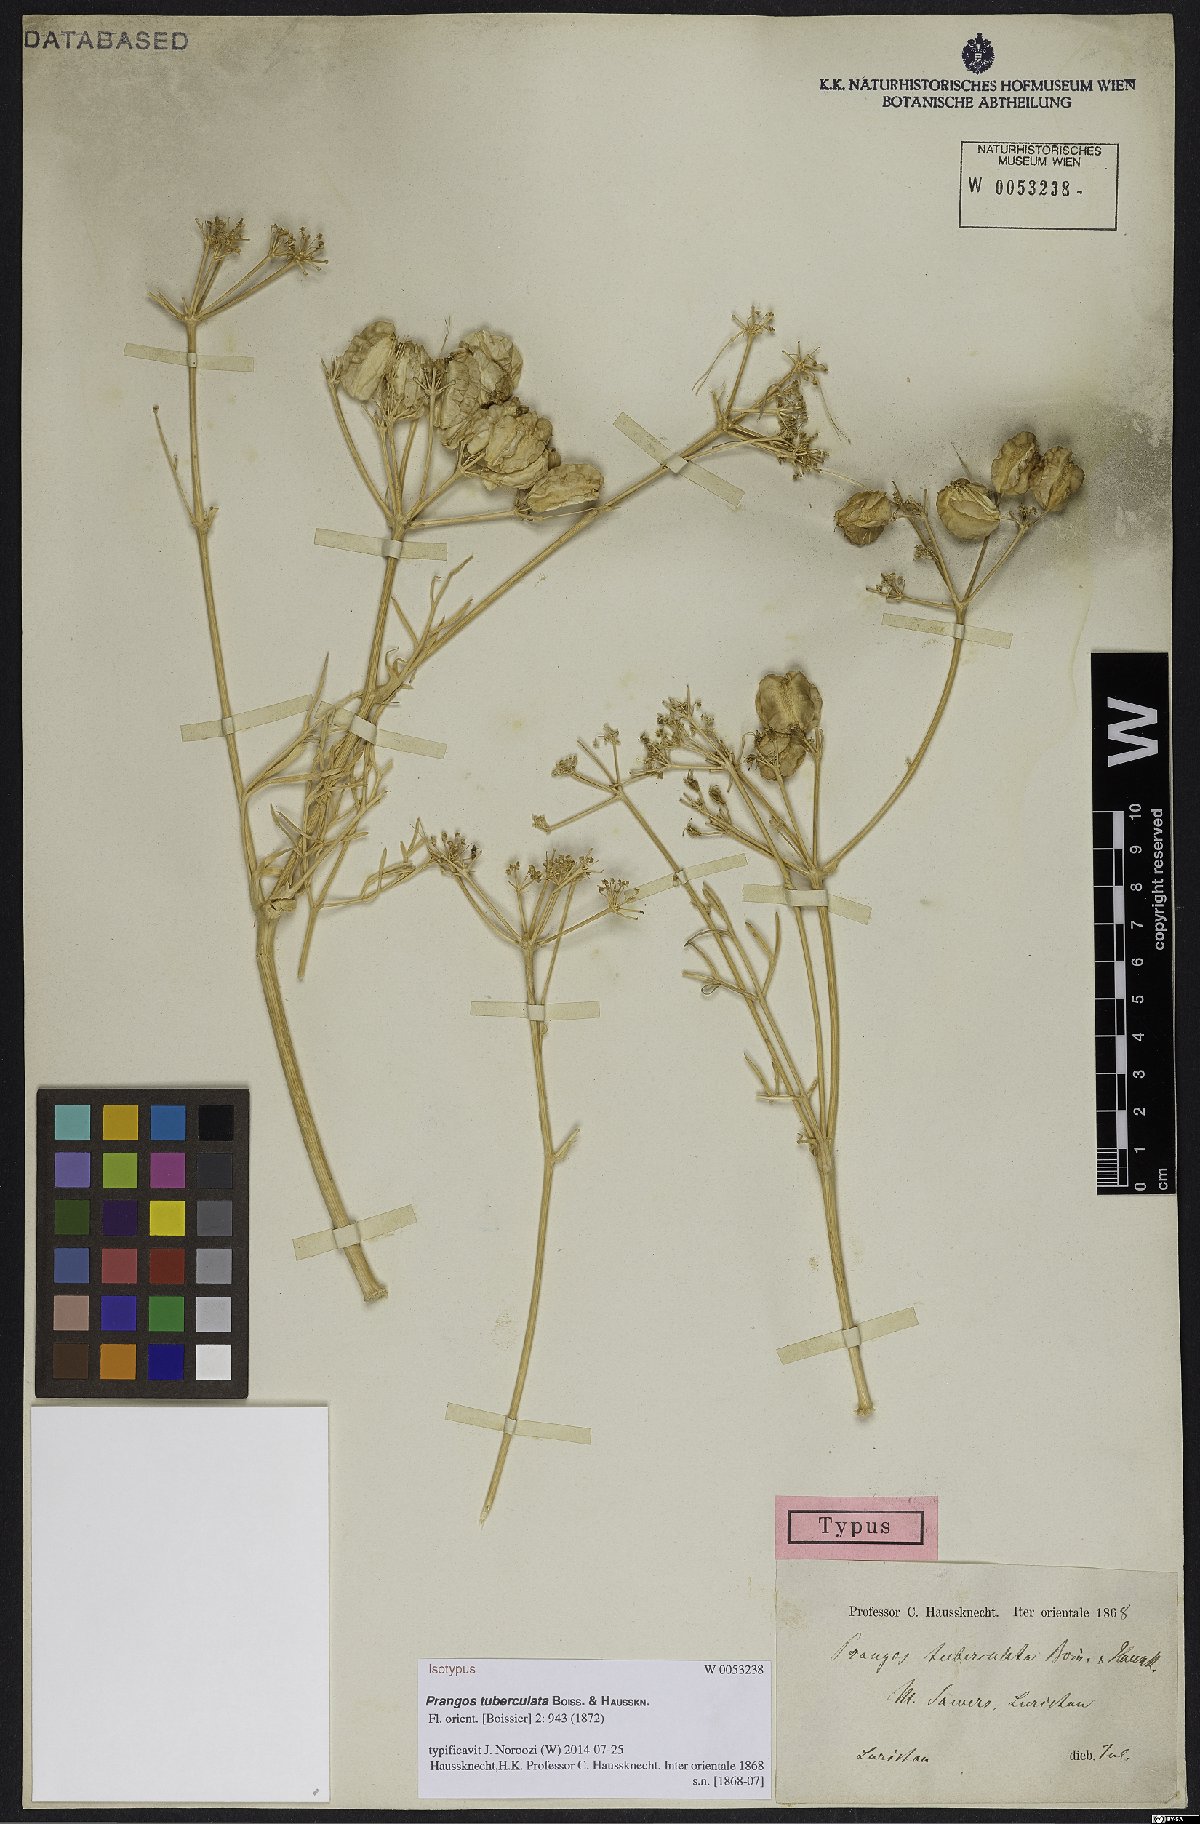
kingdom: Plantae
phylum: Tracheophyta
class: Magnoliopsida
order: Apiales
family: Apiaceae
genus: Prangos
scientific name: Prangos tuberculata
